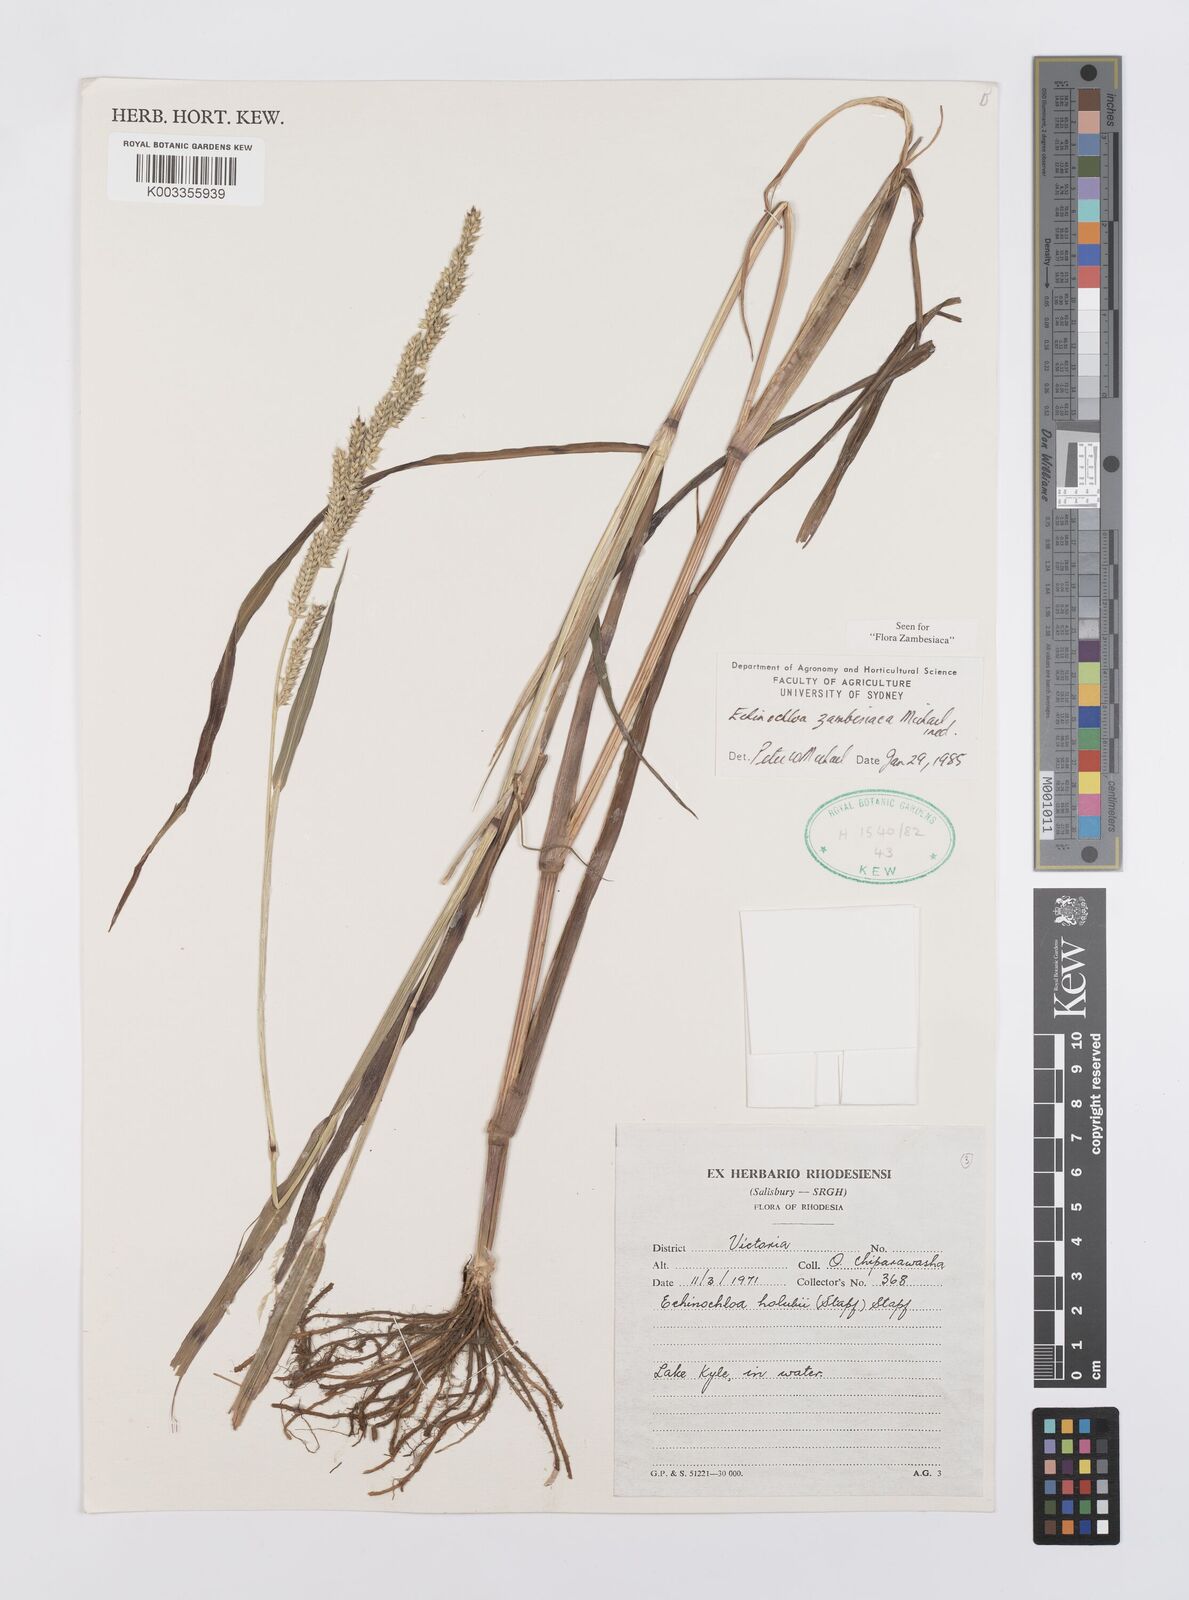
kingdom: Plantae
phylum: Tracheophyta
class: Liliopsida
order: Poales
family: Poaceae
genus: Echinochloa
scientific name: Echinochloa ugandensis
